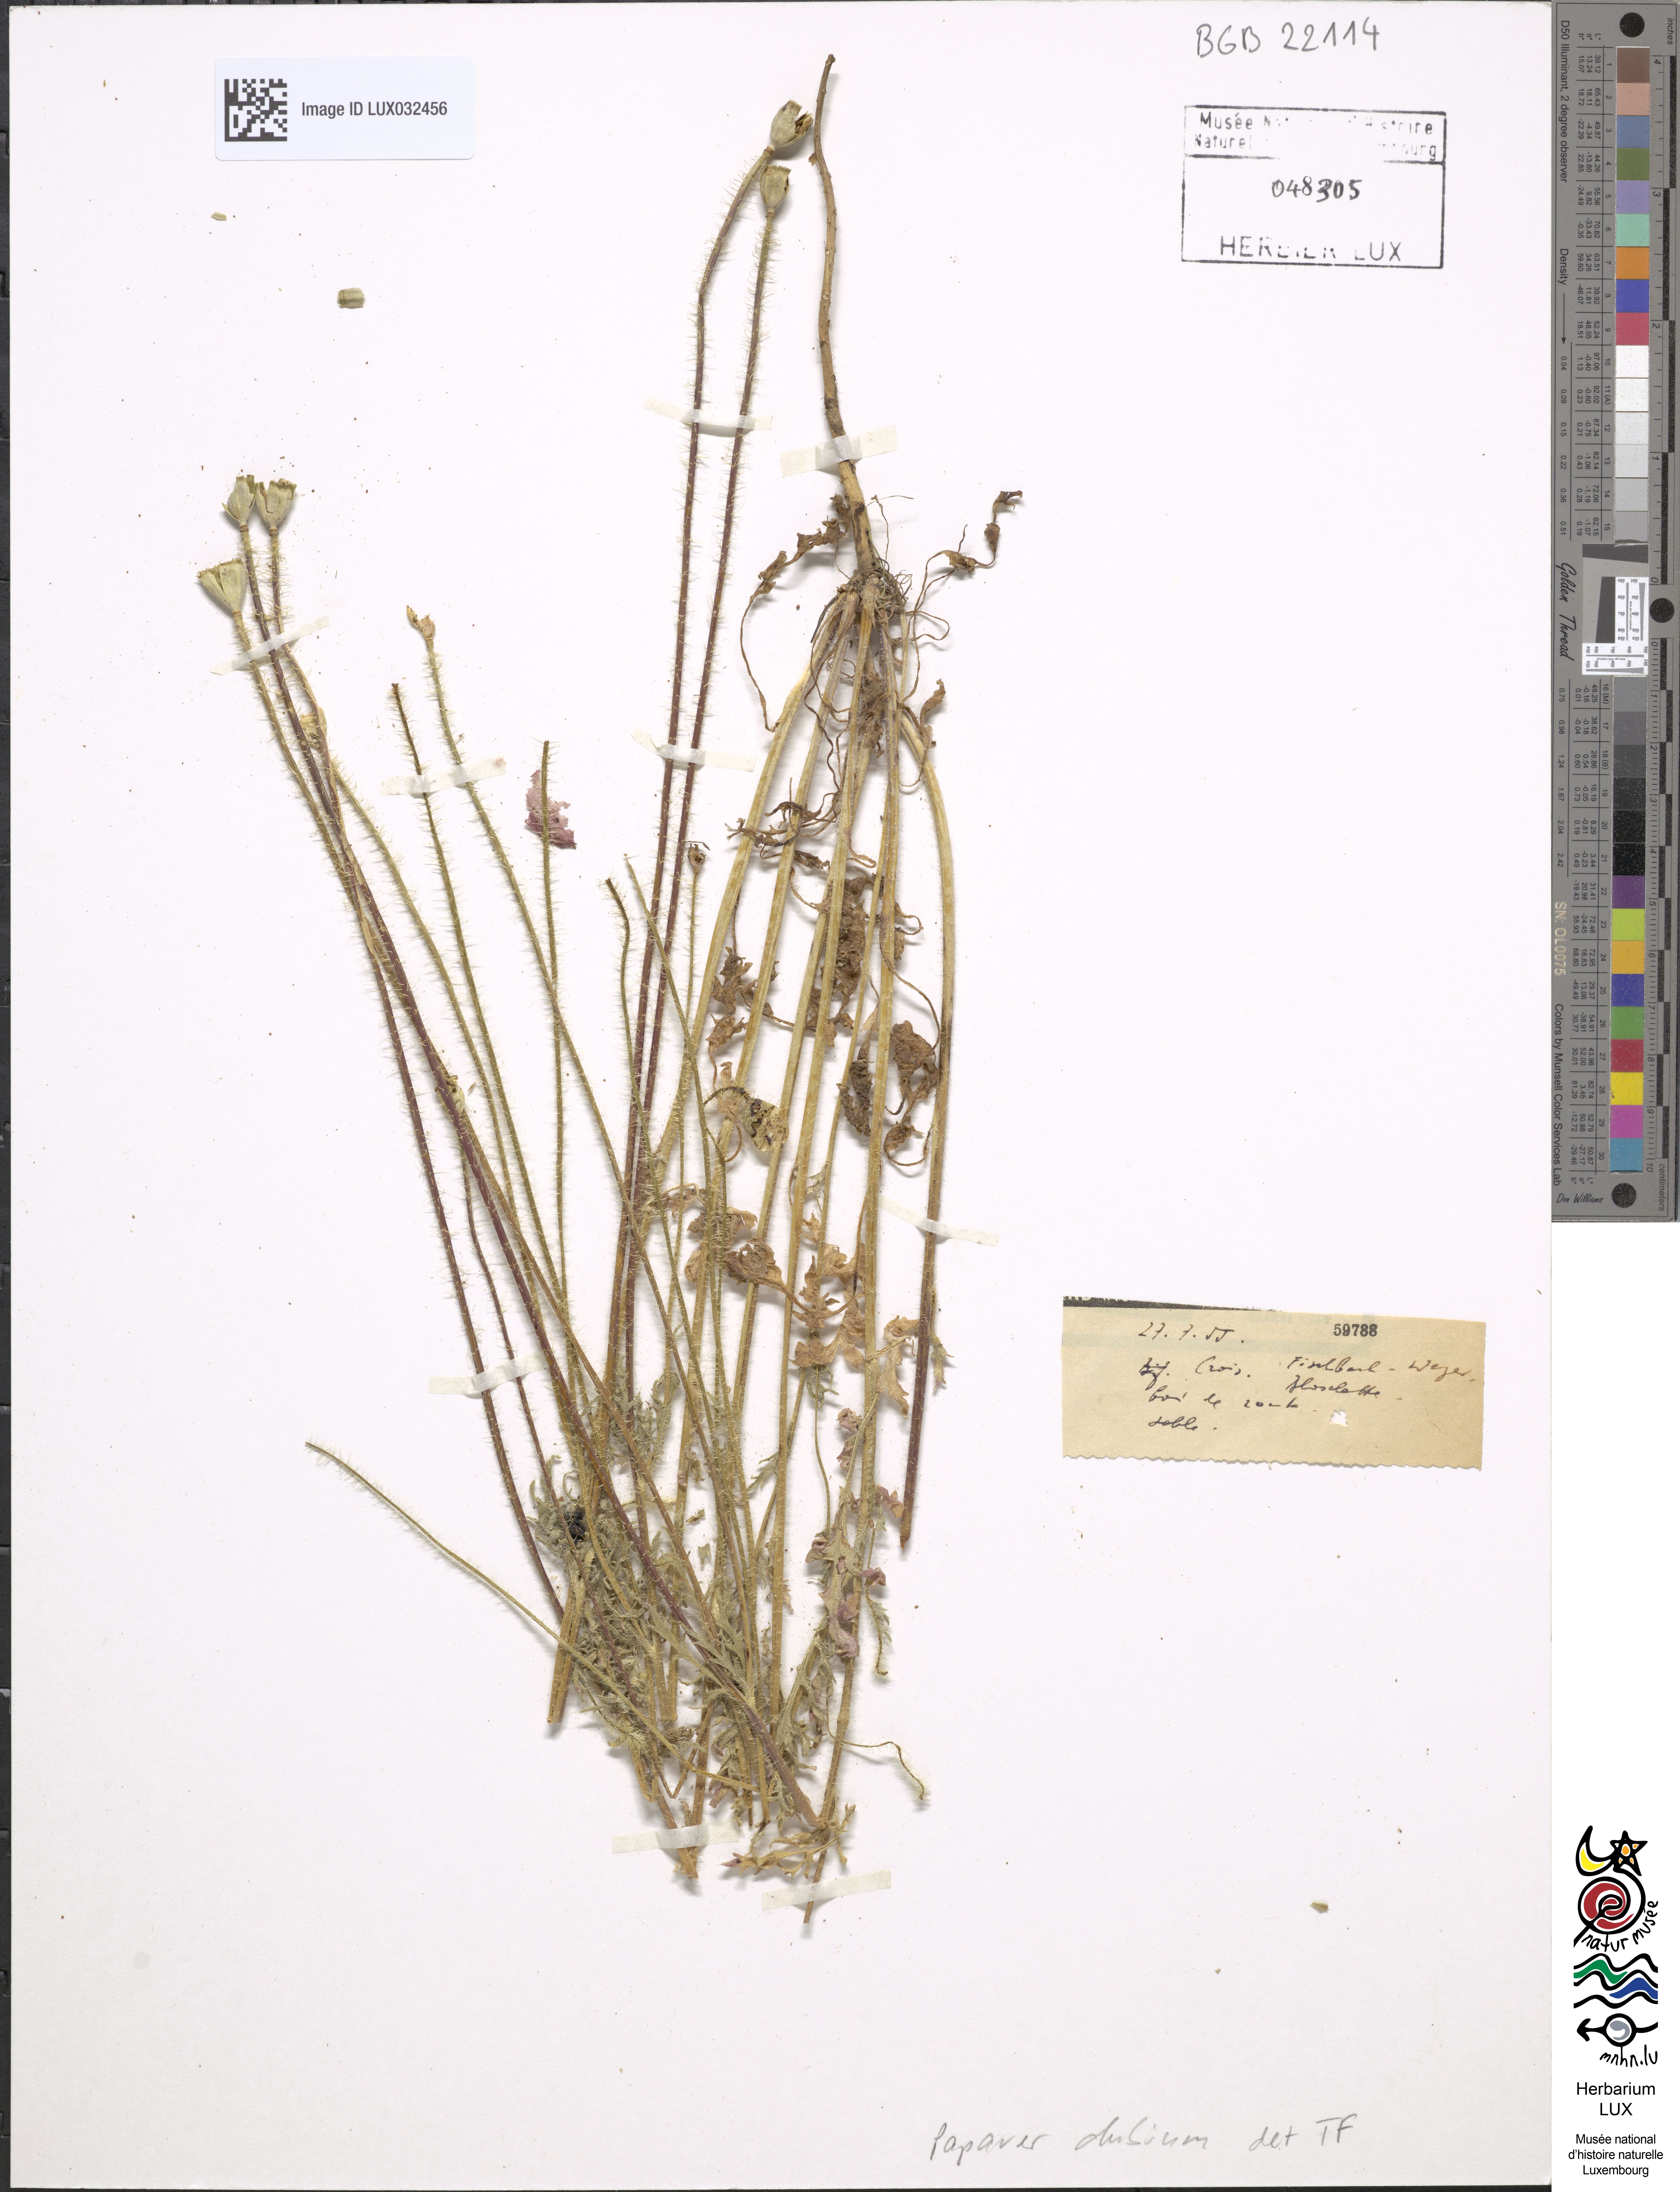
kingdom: Plantae
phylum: Tracheophyta
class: Magnoliopsida
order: Ranunculales
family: Papaveraceae
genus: Papaver
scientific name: Papaver dubium
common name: Long-headed poppy
